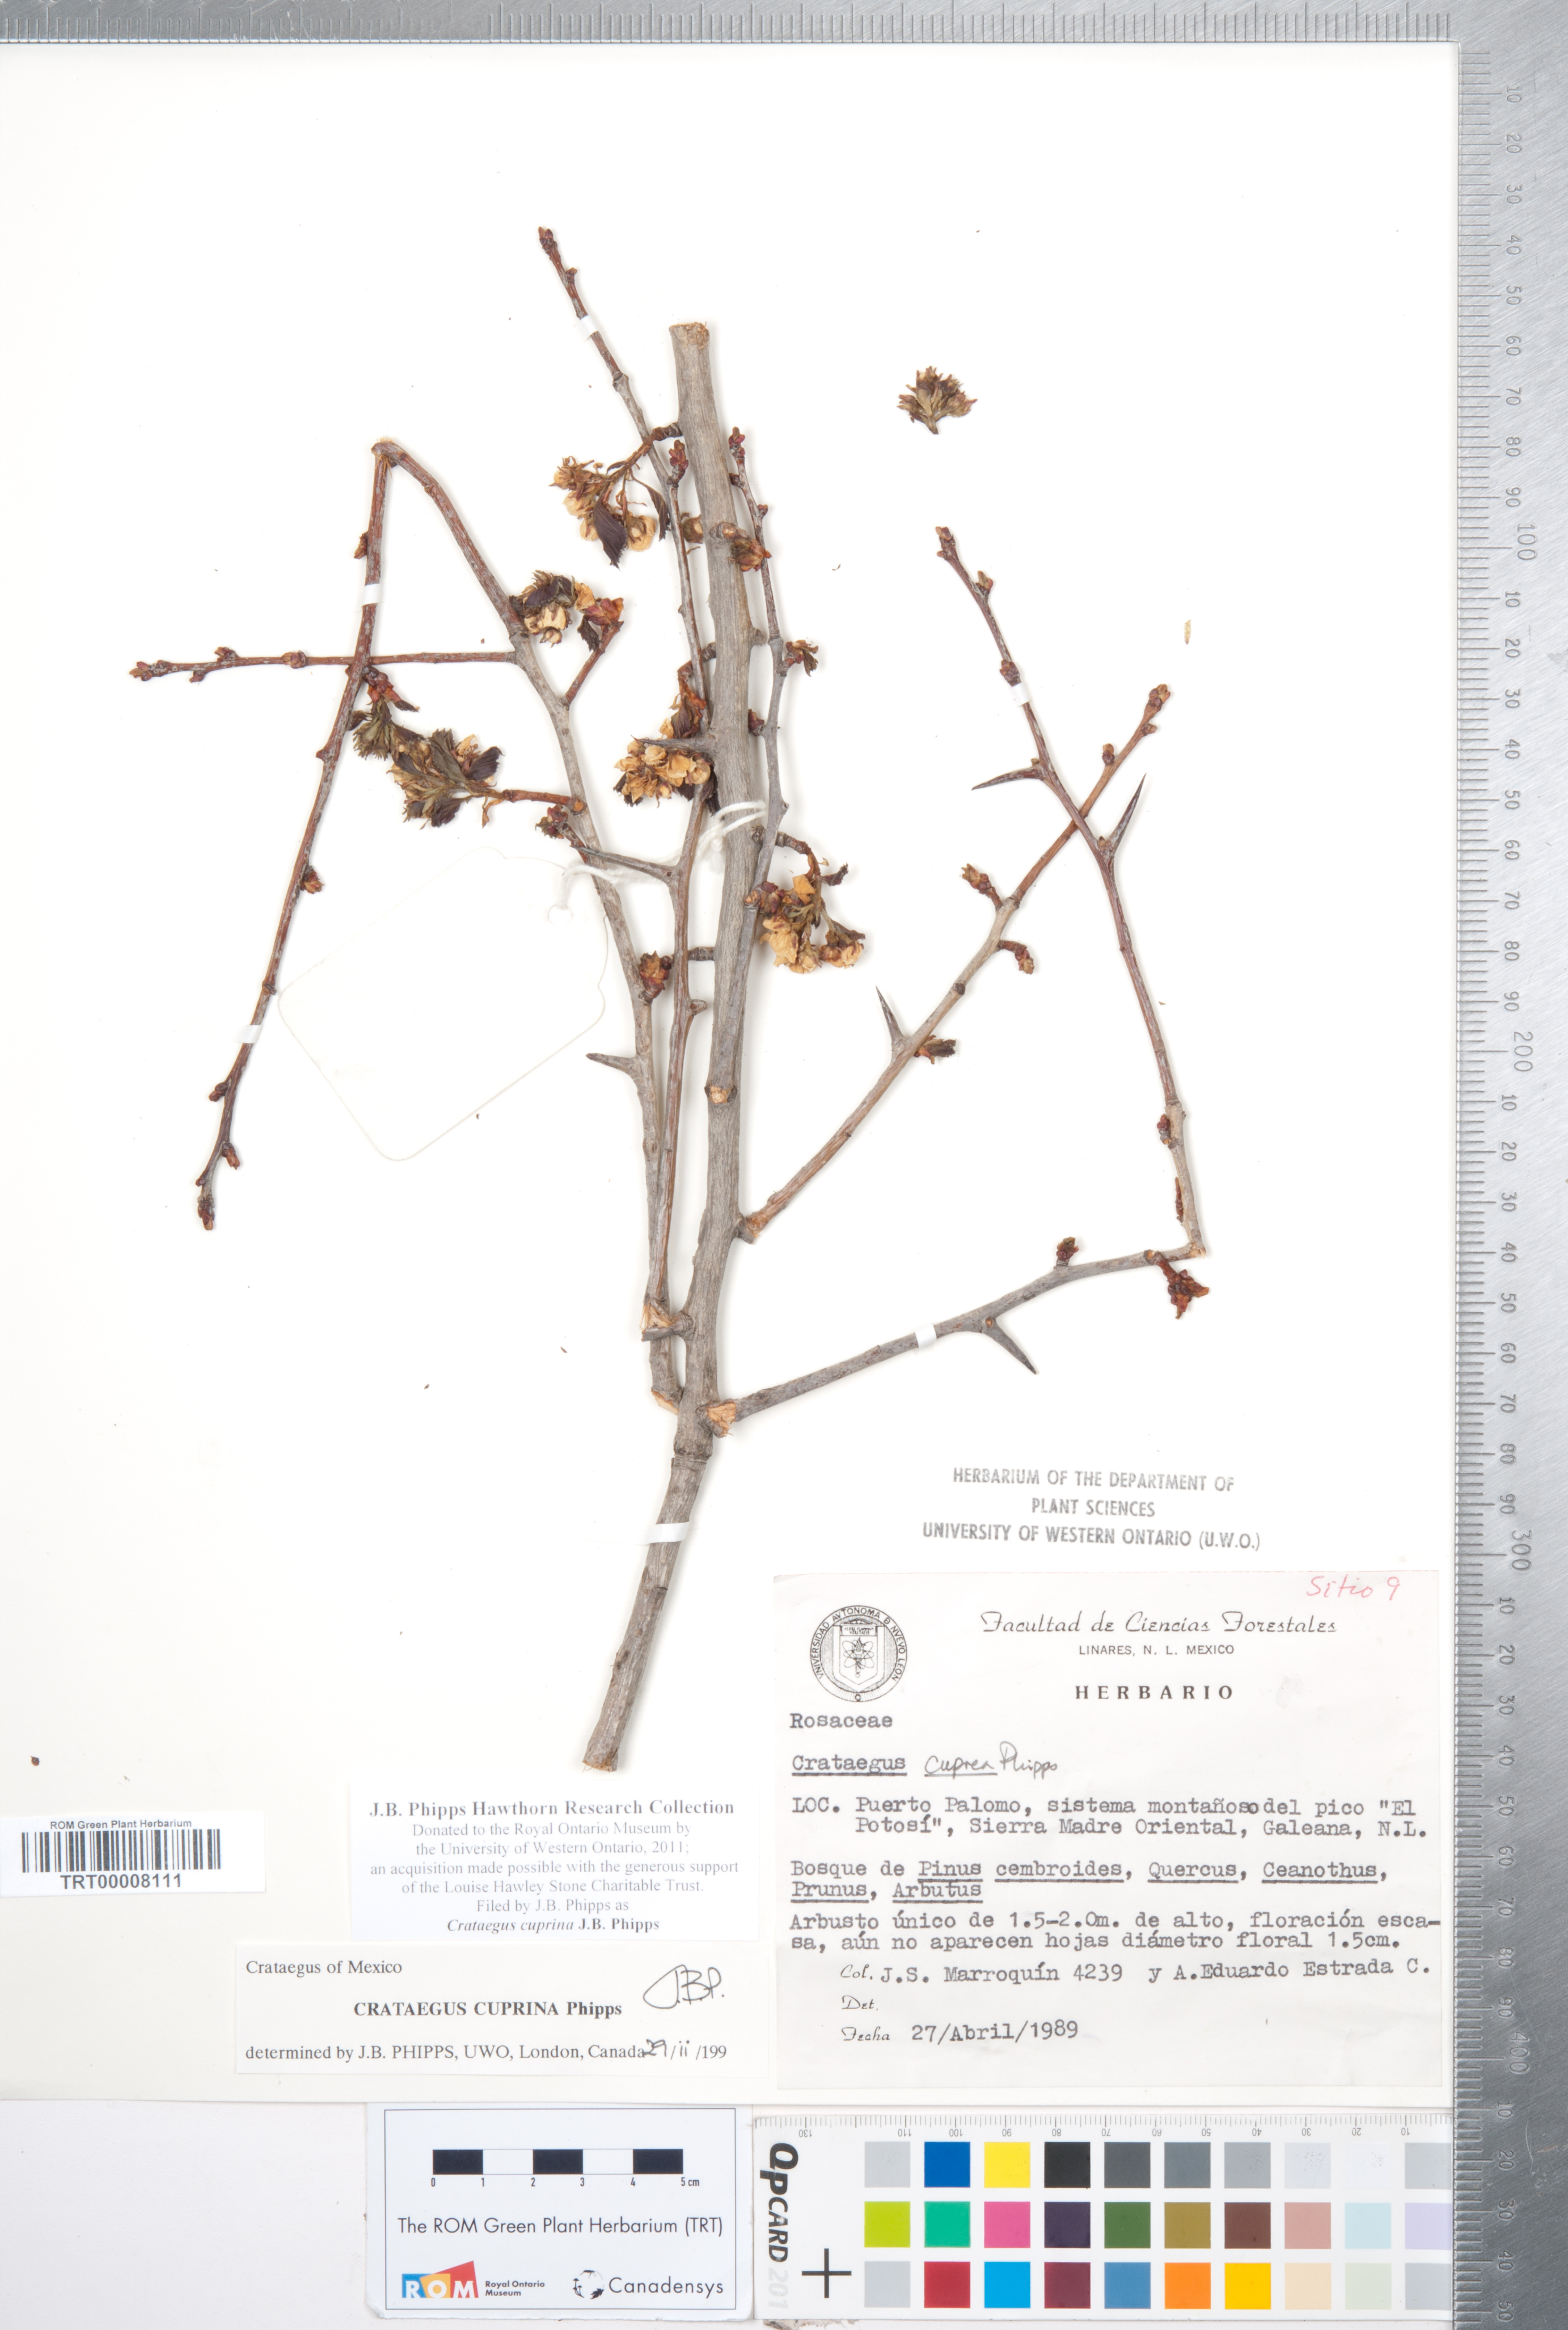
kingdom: Plantae
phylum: Tracheophyta
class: Magnoliopsida
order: Rosales
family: Rosaceae
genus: Crataegus
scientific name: Crataegus cuprina
